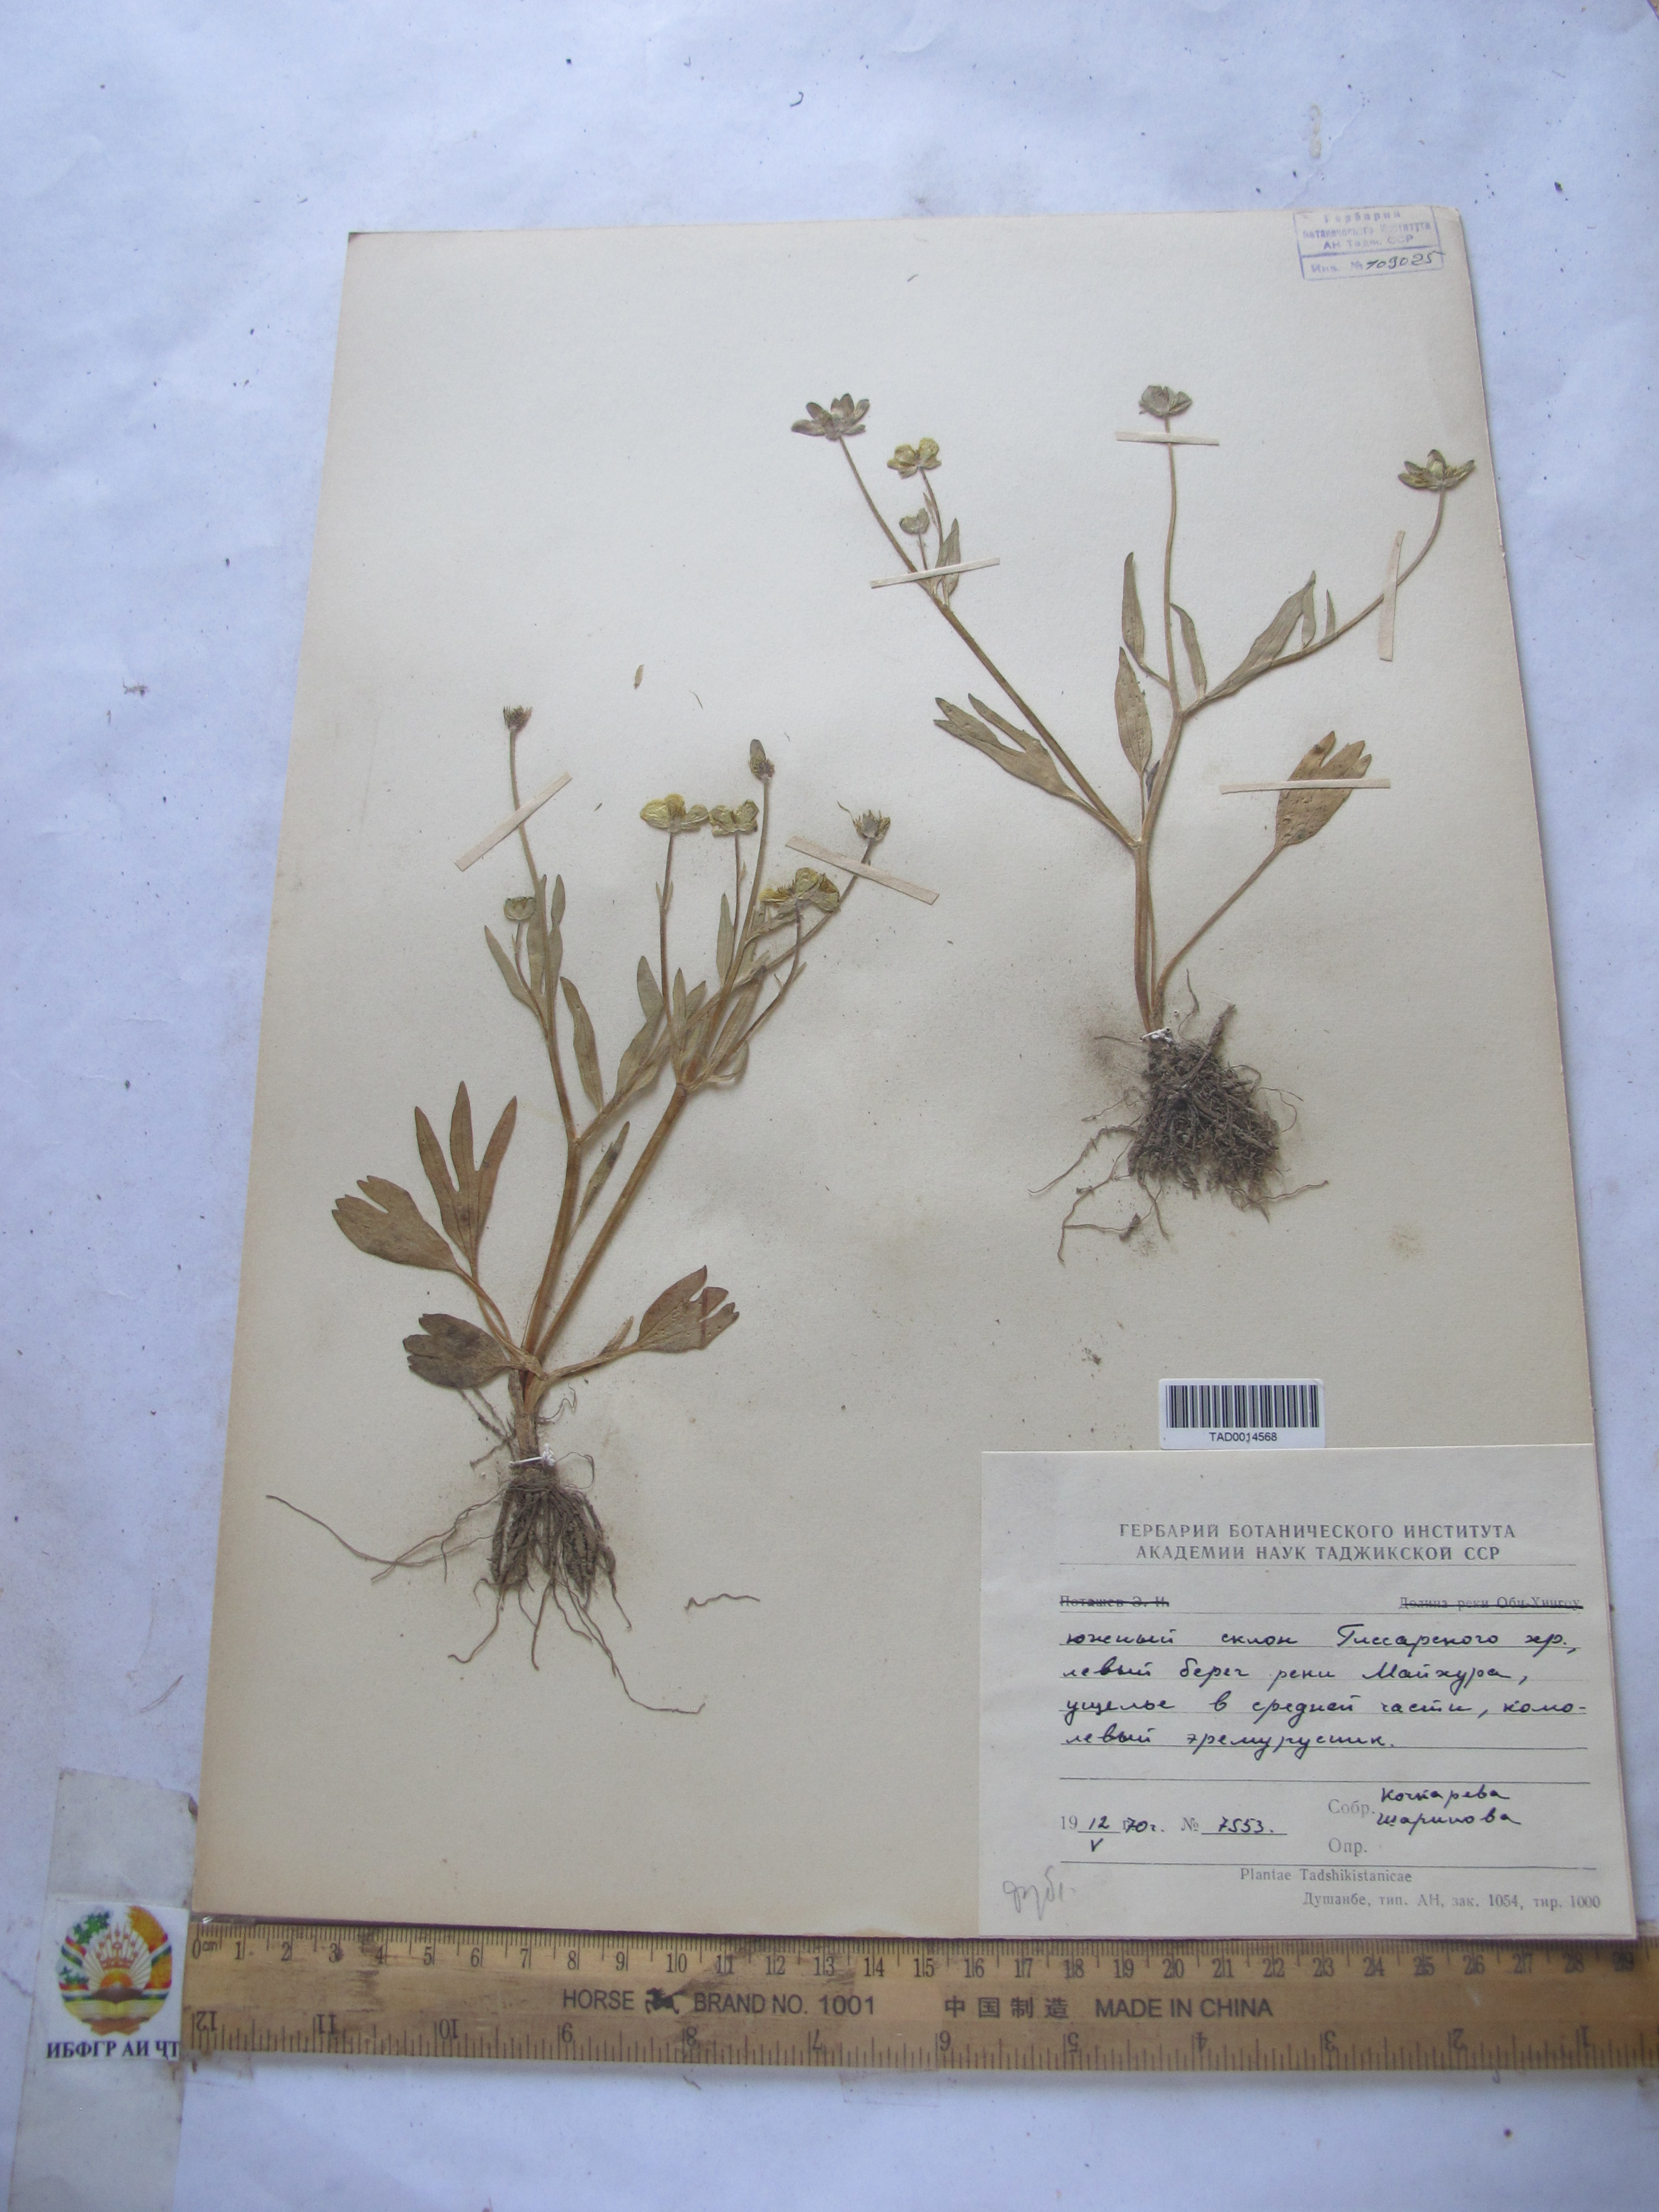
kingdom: Plantae
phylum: Tracheophyta
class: Magnoliopsida
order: Ranunculales
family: Ranunculaceae
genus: Ranunculus
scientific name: Ranunculus paucidentatus
